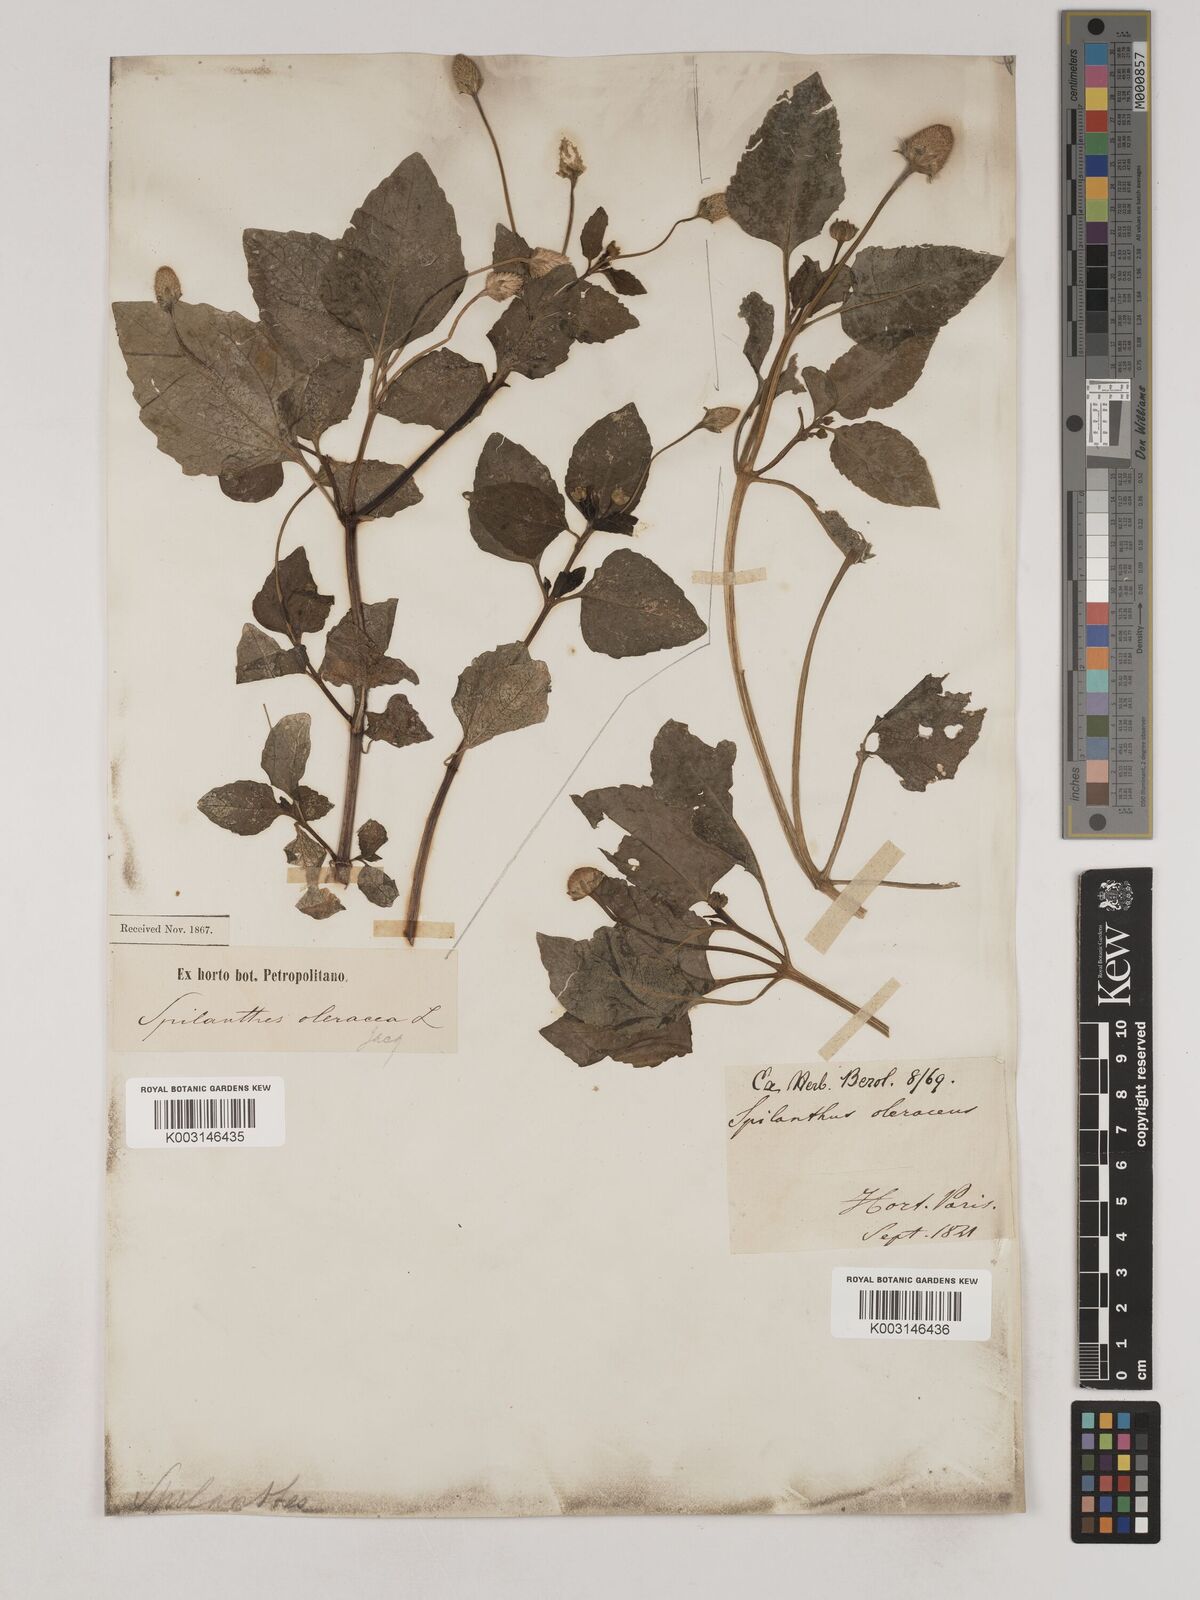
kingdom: Plantae
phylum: Tracheophyta
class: Magnoliopsida
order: Asterales
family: Asteraceae
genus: Acmella
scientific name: Acmella oleracea
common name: Brazilian cress
